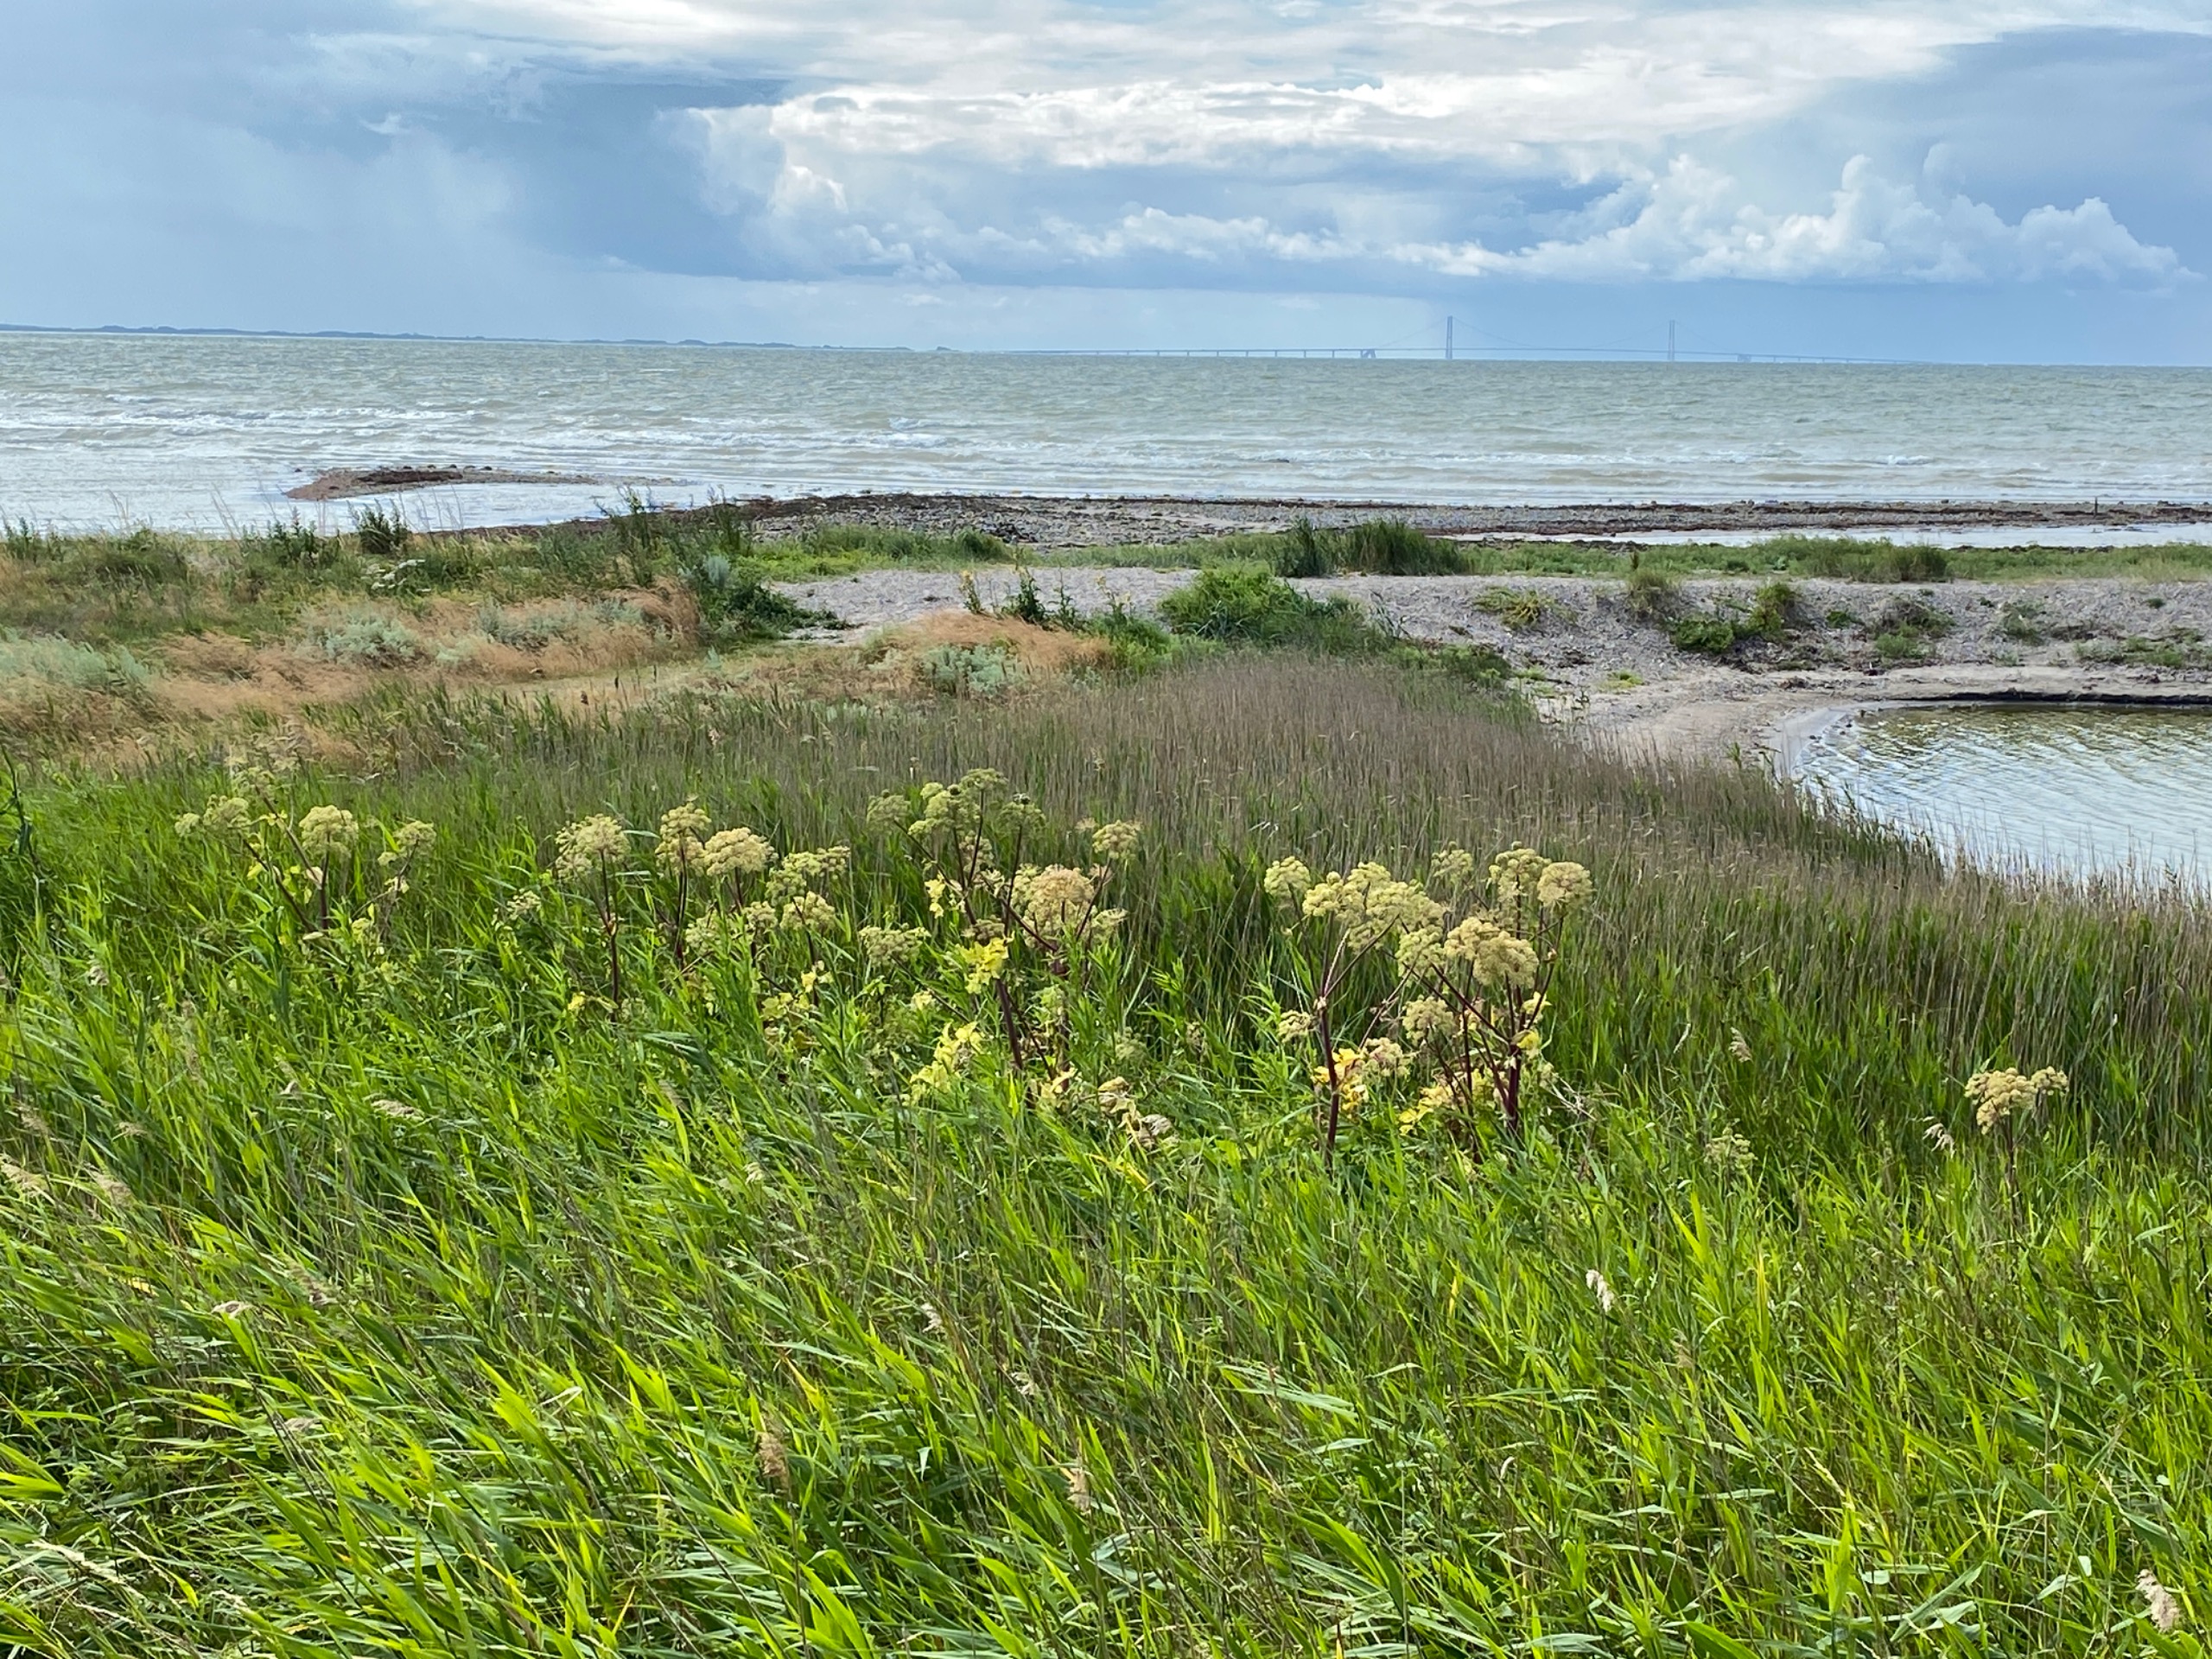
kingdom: Plantae
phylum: Tracheophyta
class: Magnoliopsida
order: Apiales
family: Apiaceae
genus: Angelica
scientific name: Angelica archangelica
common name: Kvan
